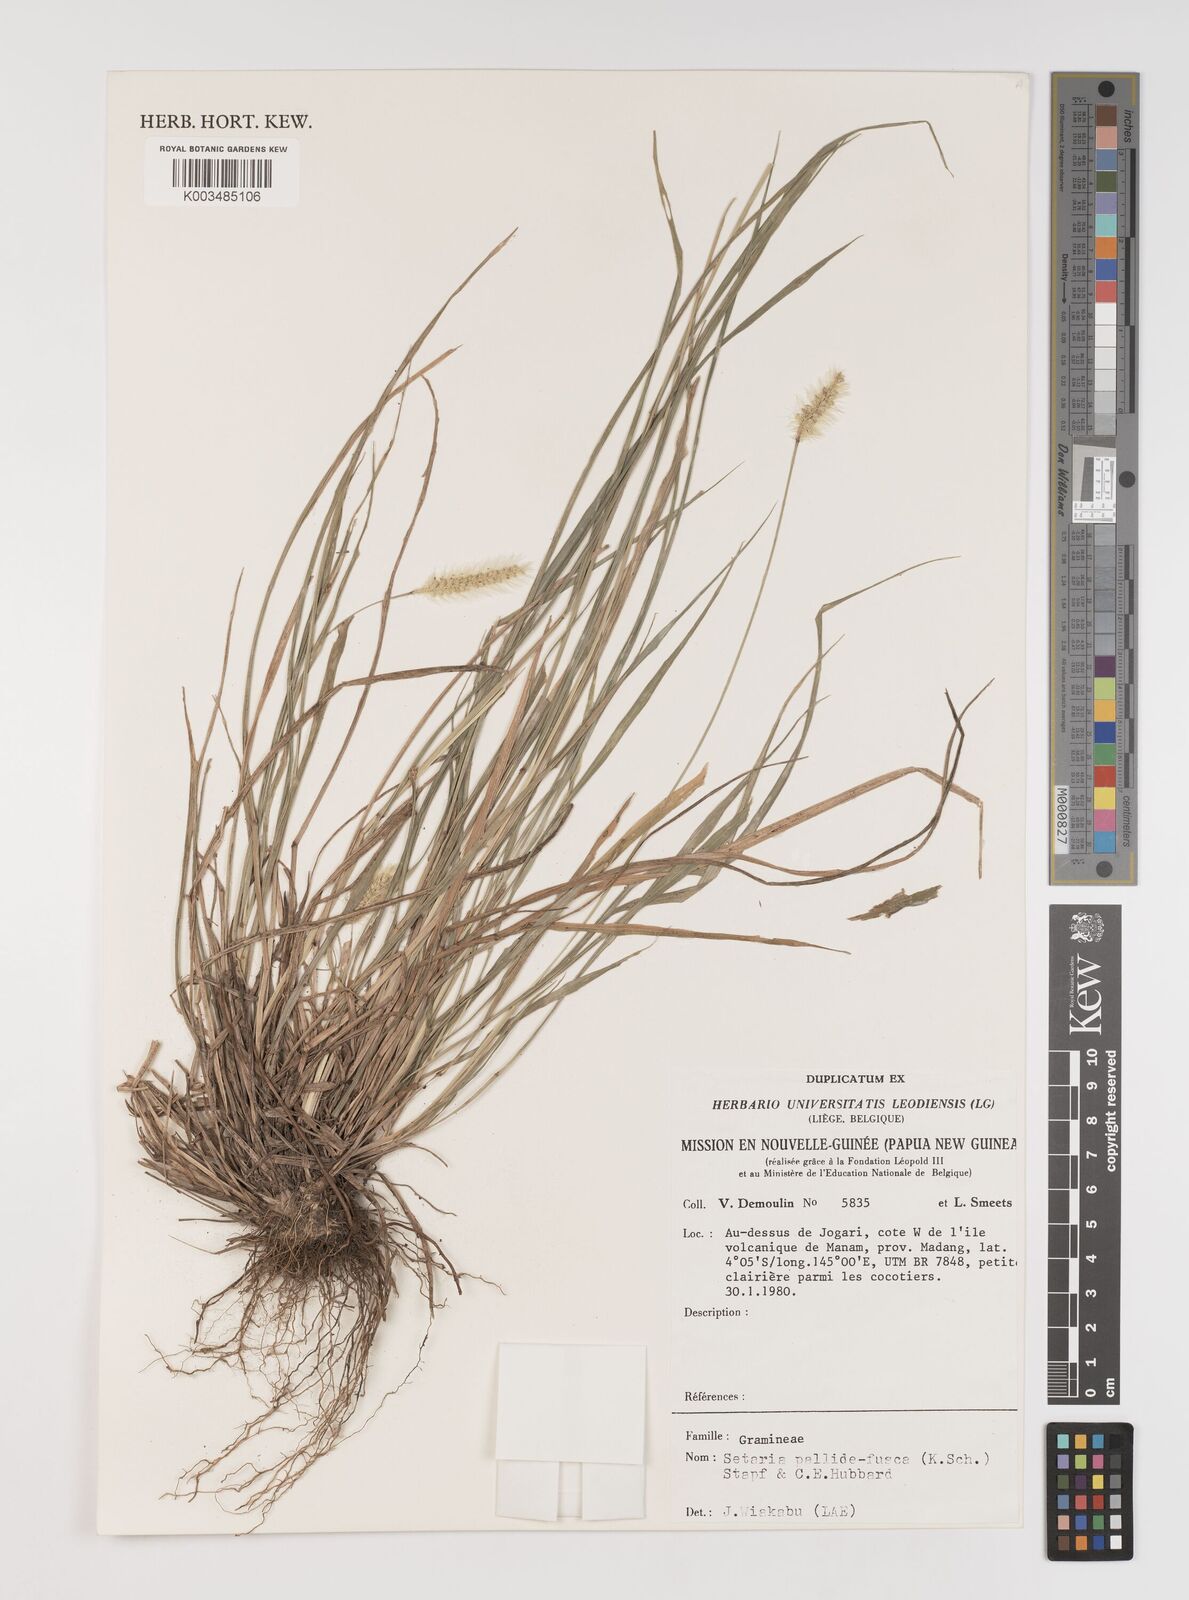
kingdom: Plantae
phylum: Tracheophyta
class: Liliopsida
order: Poales
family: Poaceae
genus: Setaria
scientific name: Setaria parviflora
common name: Knotroot bristle-grass
